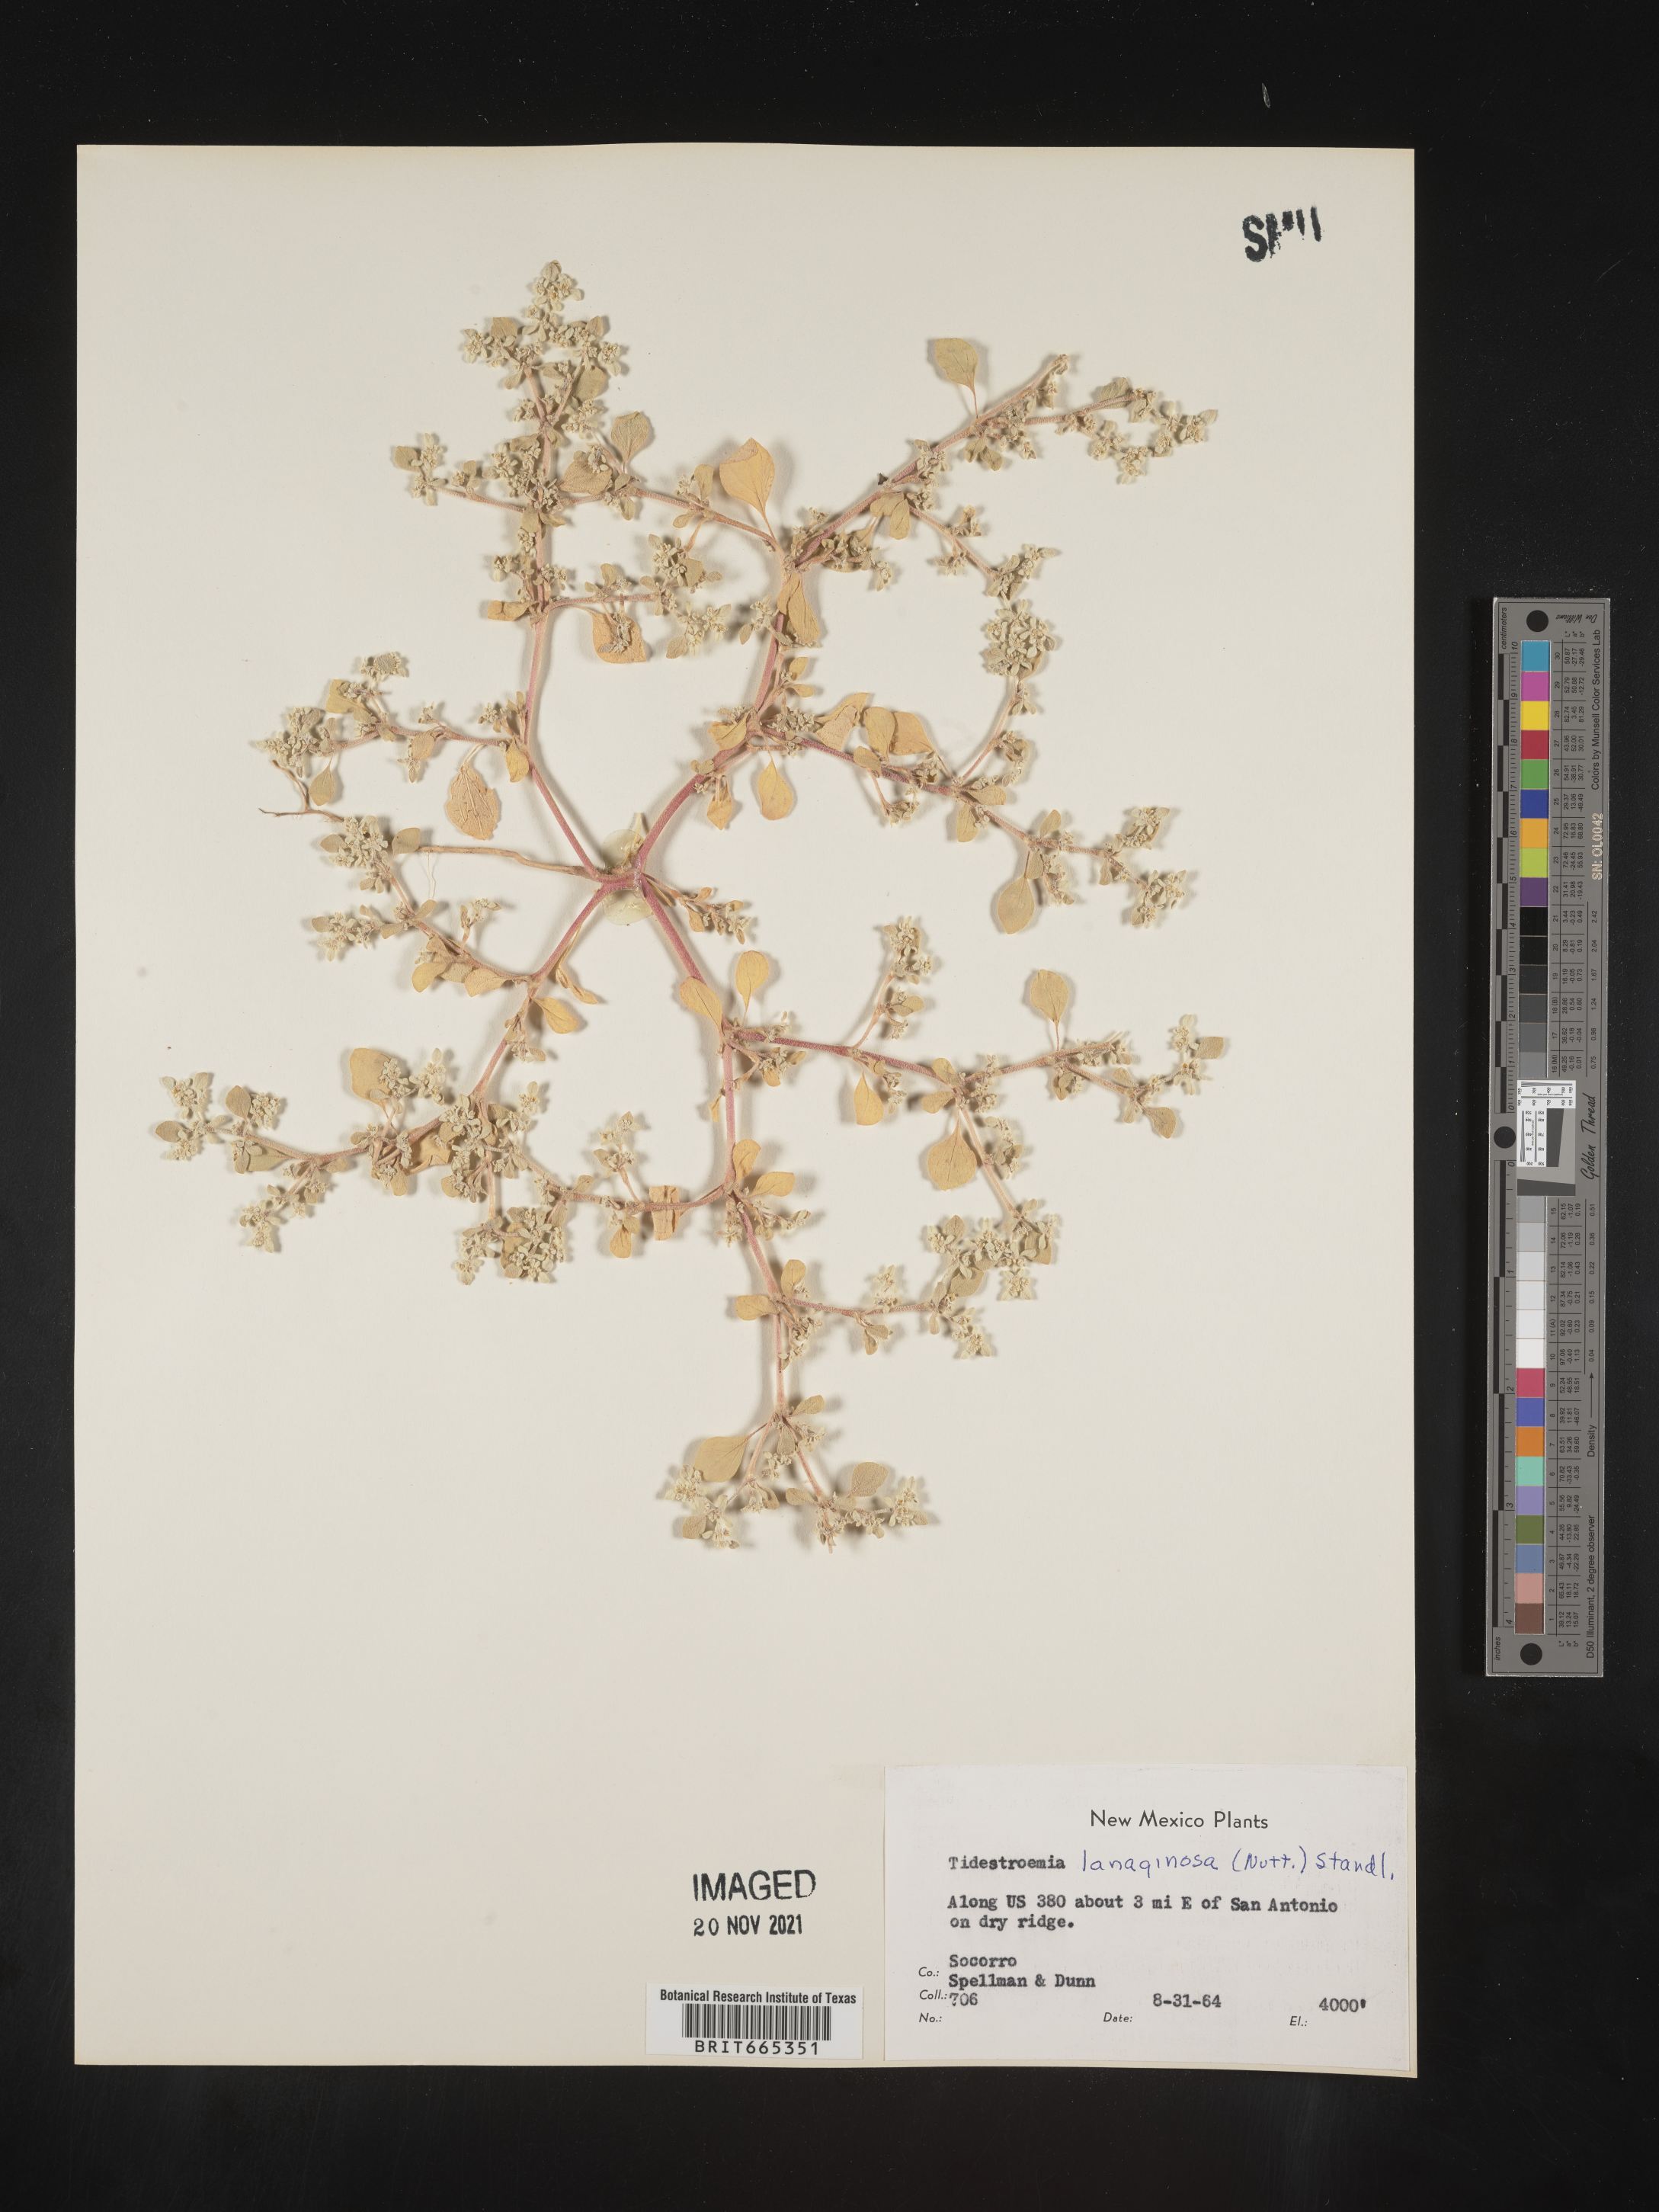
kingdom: Plantae
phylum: Tracheophyta
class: Magnoliopsida
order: Caryophyllales
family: Amaranthaceae
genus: Tidestromia
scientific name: Tidestromia lanuginosa
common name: Woolly tidestromia
